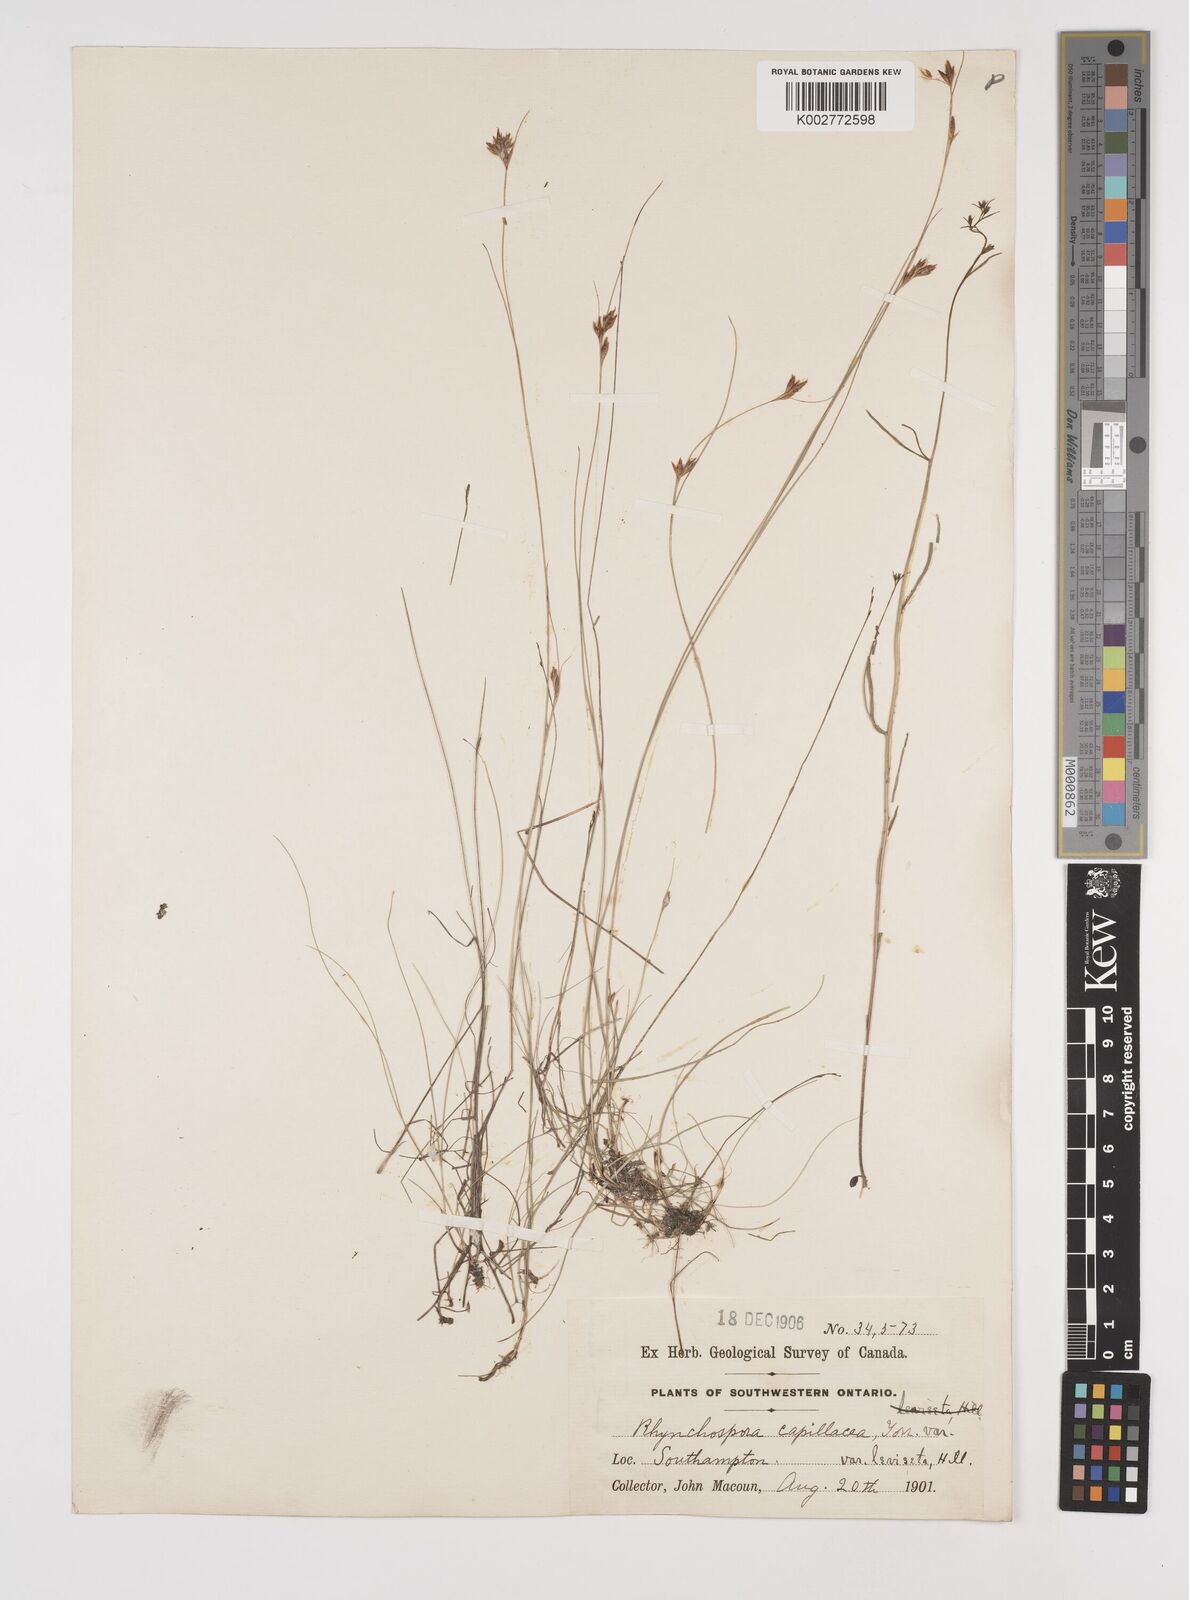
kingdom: Plantae
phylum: Tracheophyta
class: Liliopsida
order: Poales
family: Cyperaceae
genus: Rhynchospora
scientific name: Rhynchospora capillacea
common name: Capillary beakrush
